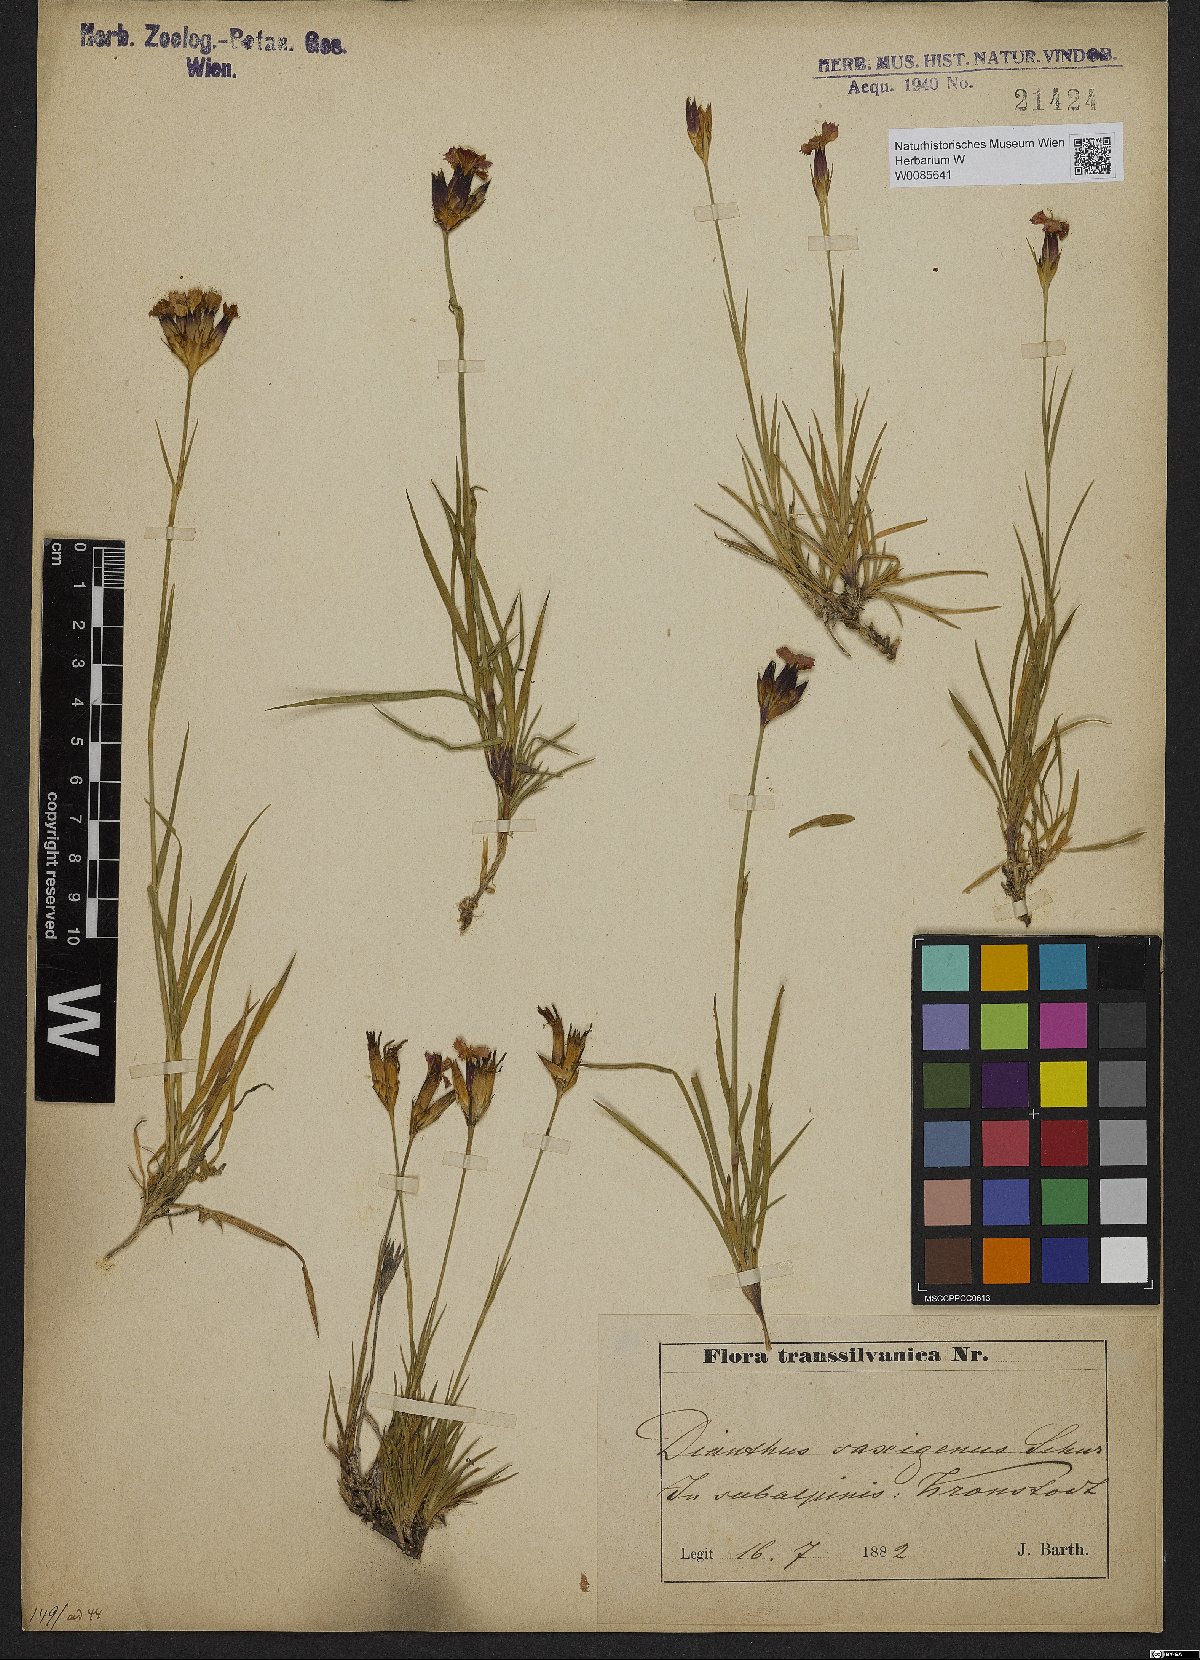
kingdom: Plantae
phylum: Tracheophyta
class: Magnoliopsida
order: Caryophyllales
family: Caryophyllaceae
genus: Dianthus
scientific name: Dianthus
